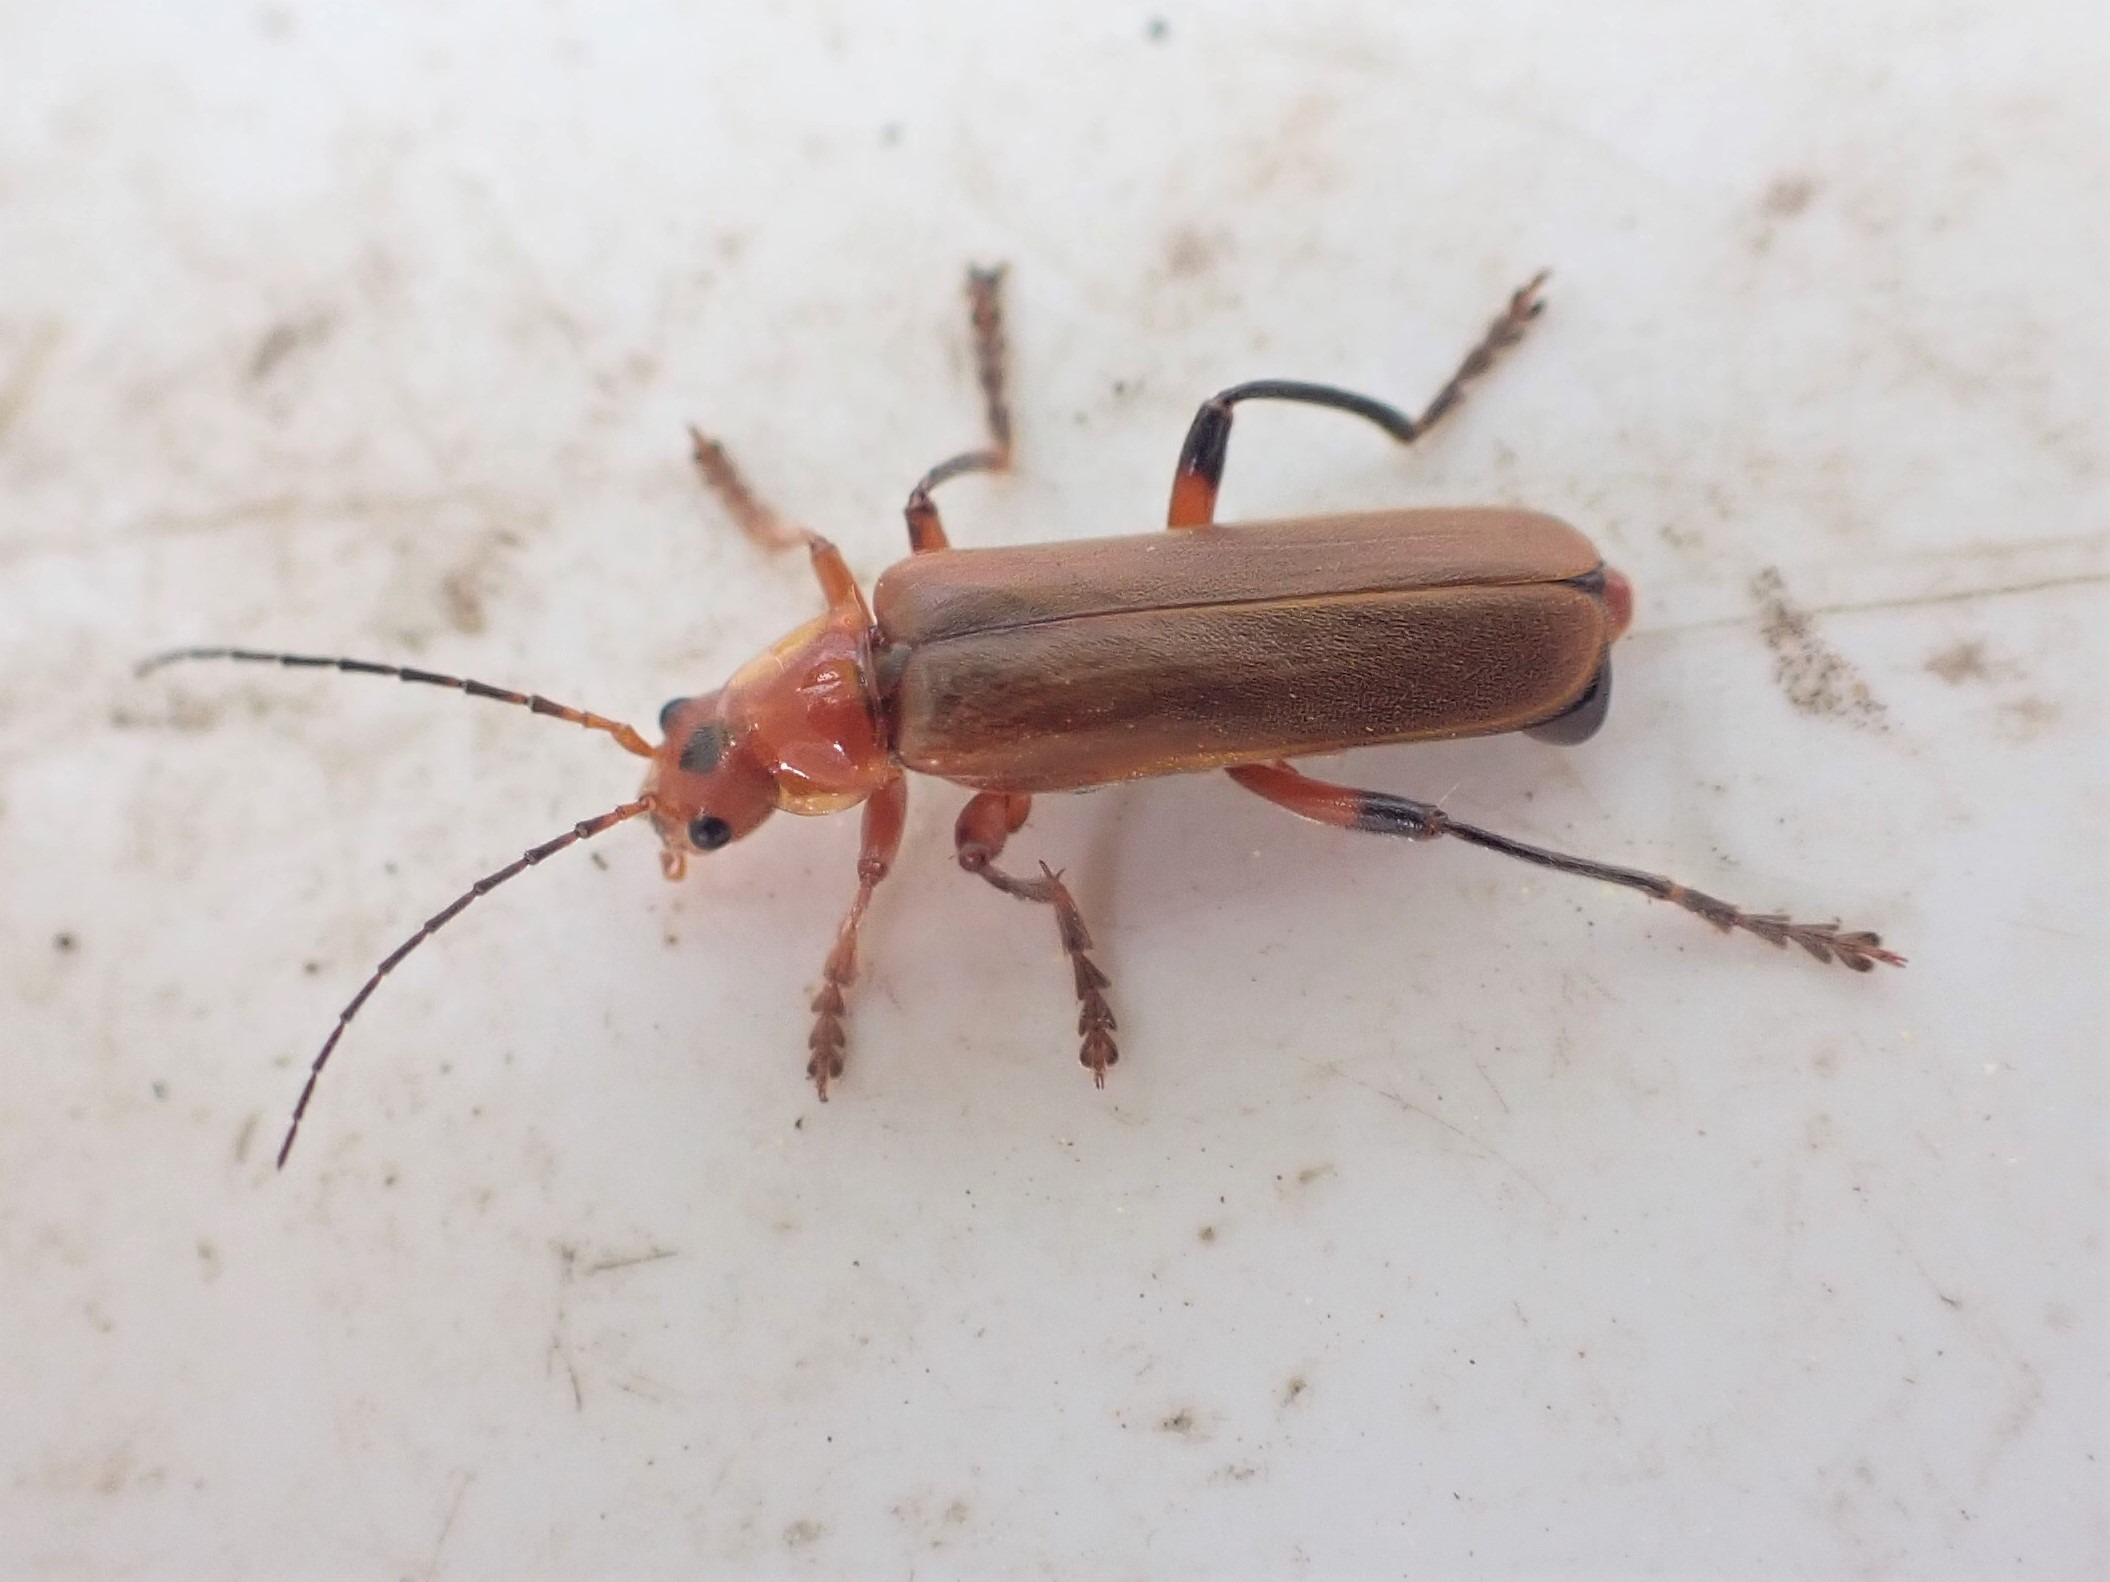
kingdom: Animalia
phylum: Arthropoda
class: Insecta
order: Coleoptera
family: Cantharidae
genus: Cantharis
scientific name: Cantharis livida
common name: Gul blødvinge
